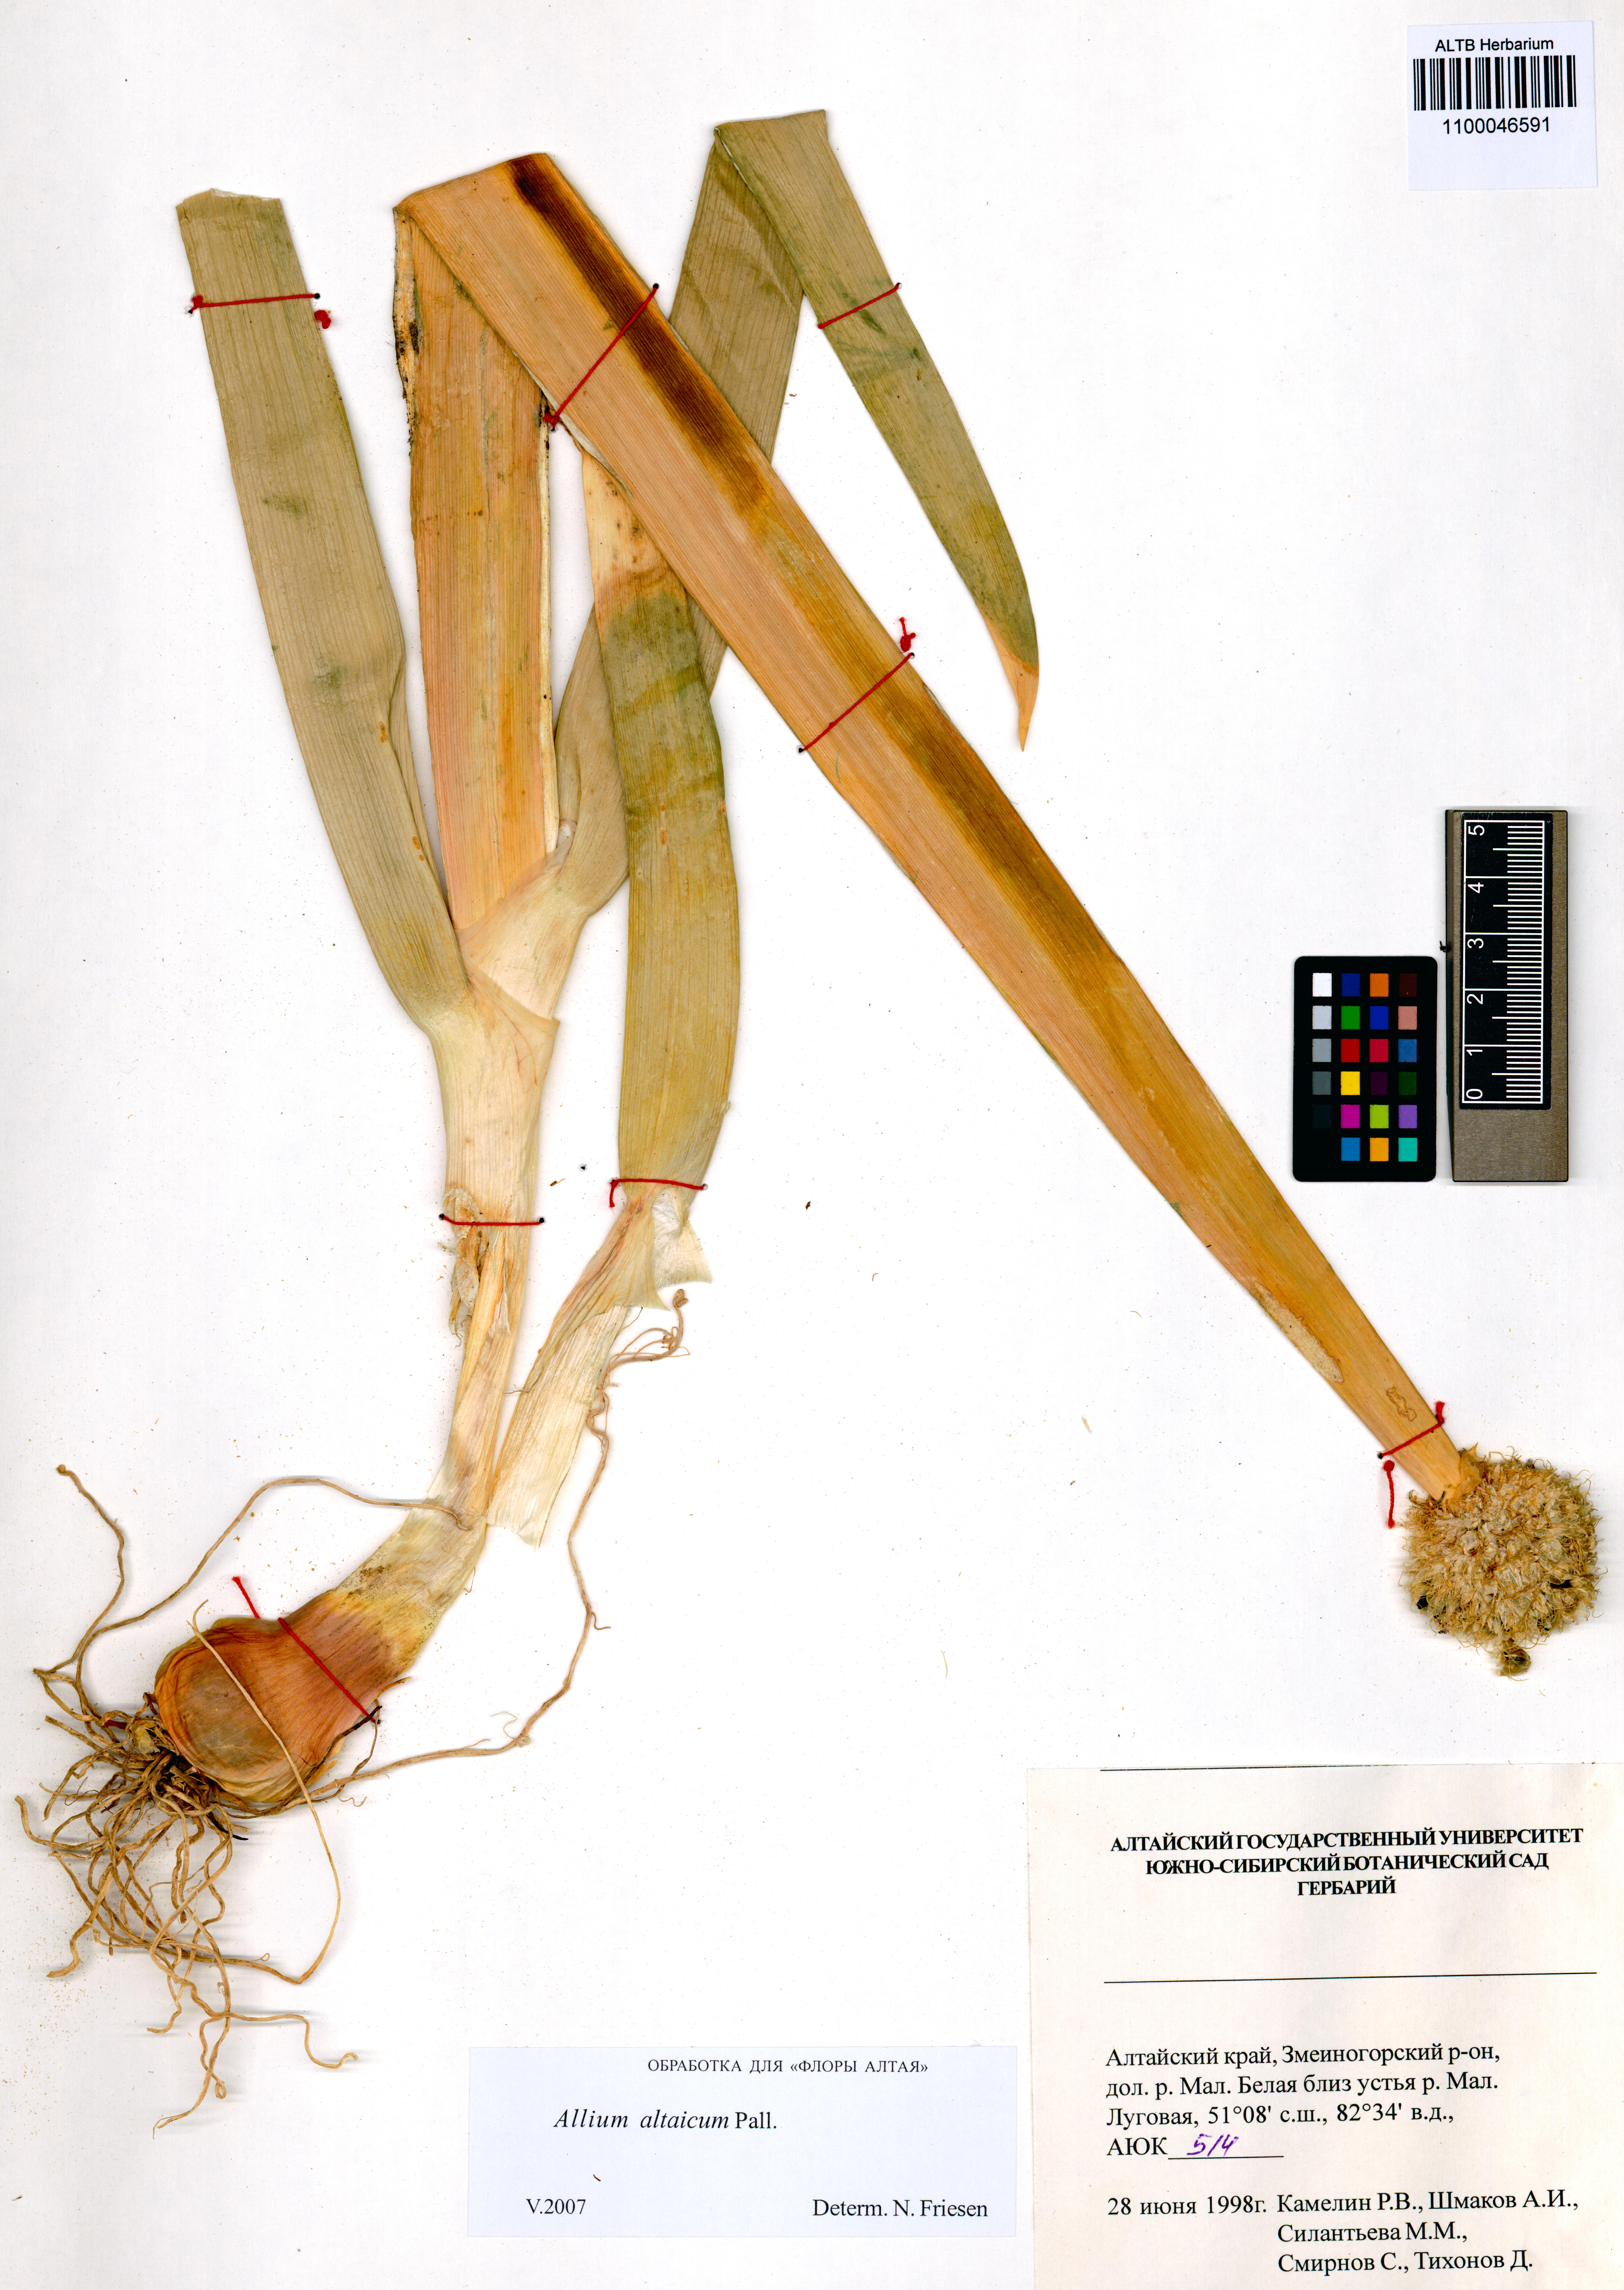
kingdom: Plantae
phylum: Tracheophyta
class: Liliopsida
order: Asparagales
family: Amaryllidaceae
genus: Allium
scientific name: Allium altaicum
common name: Altai onion
